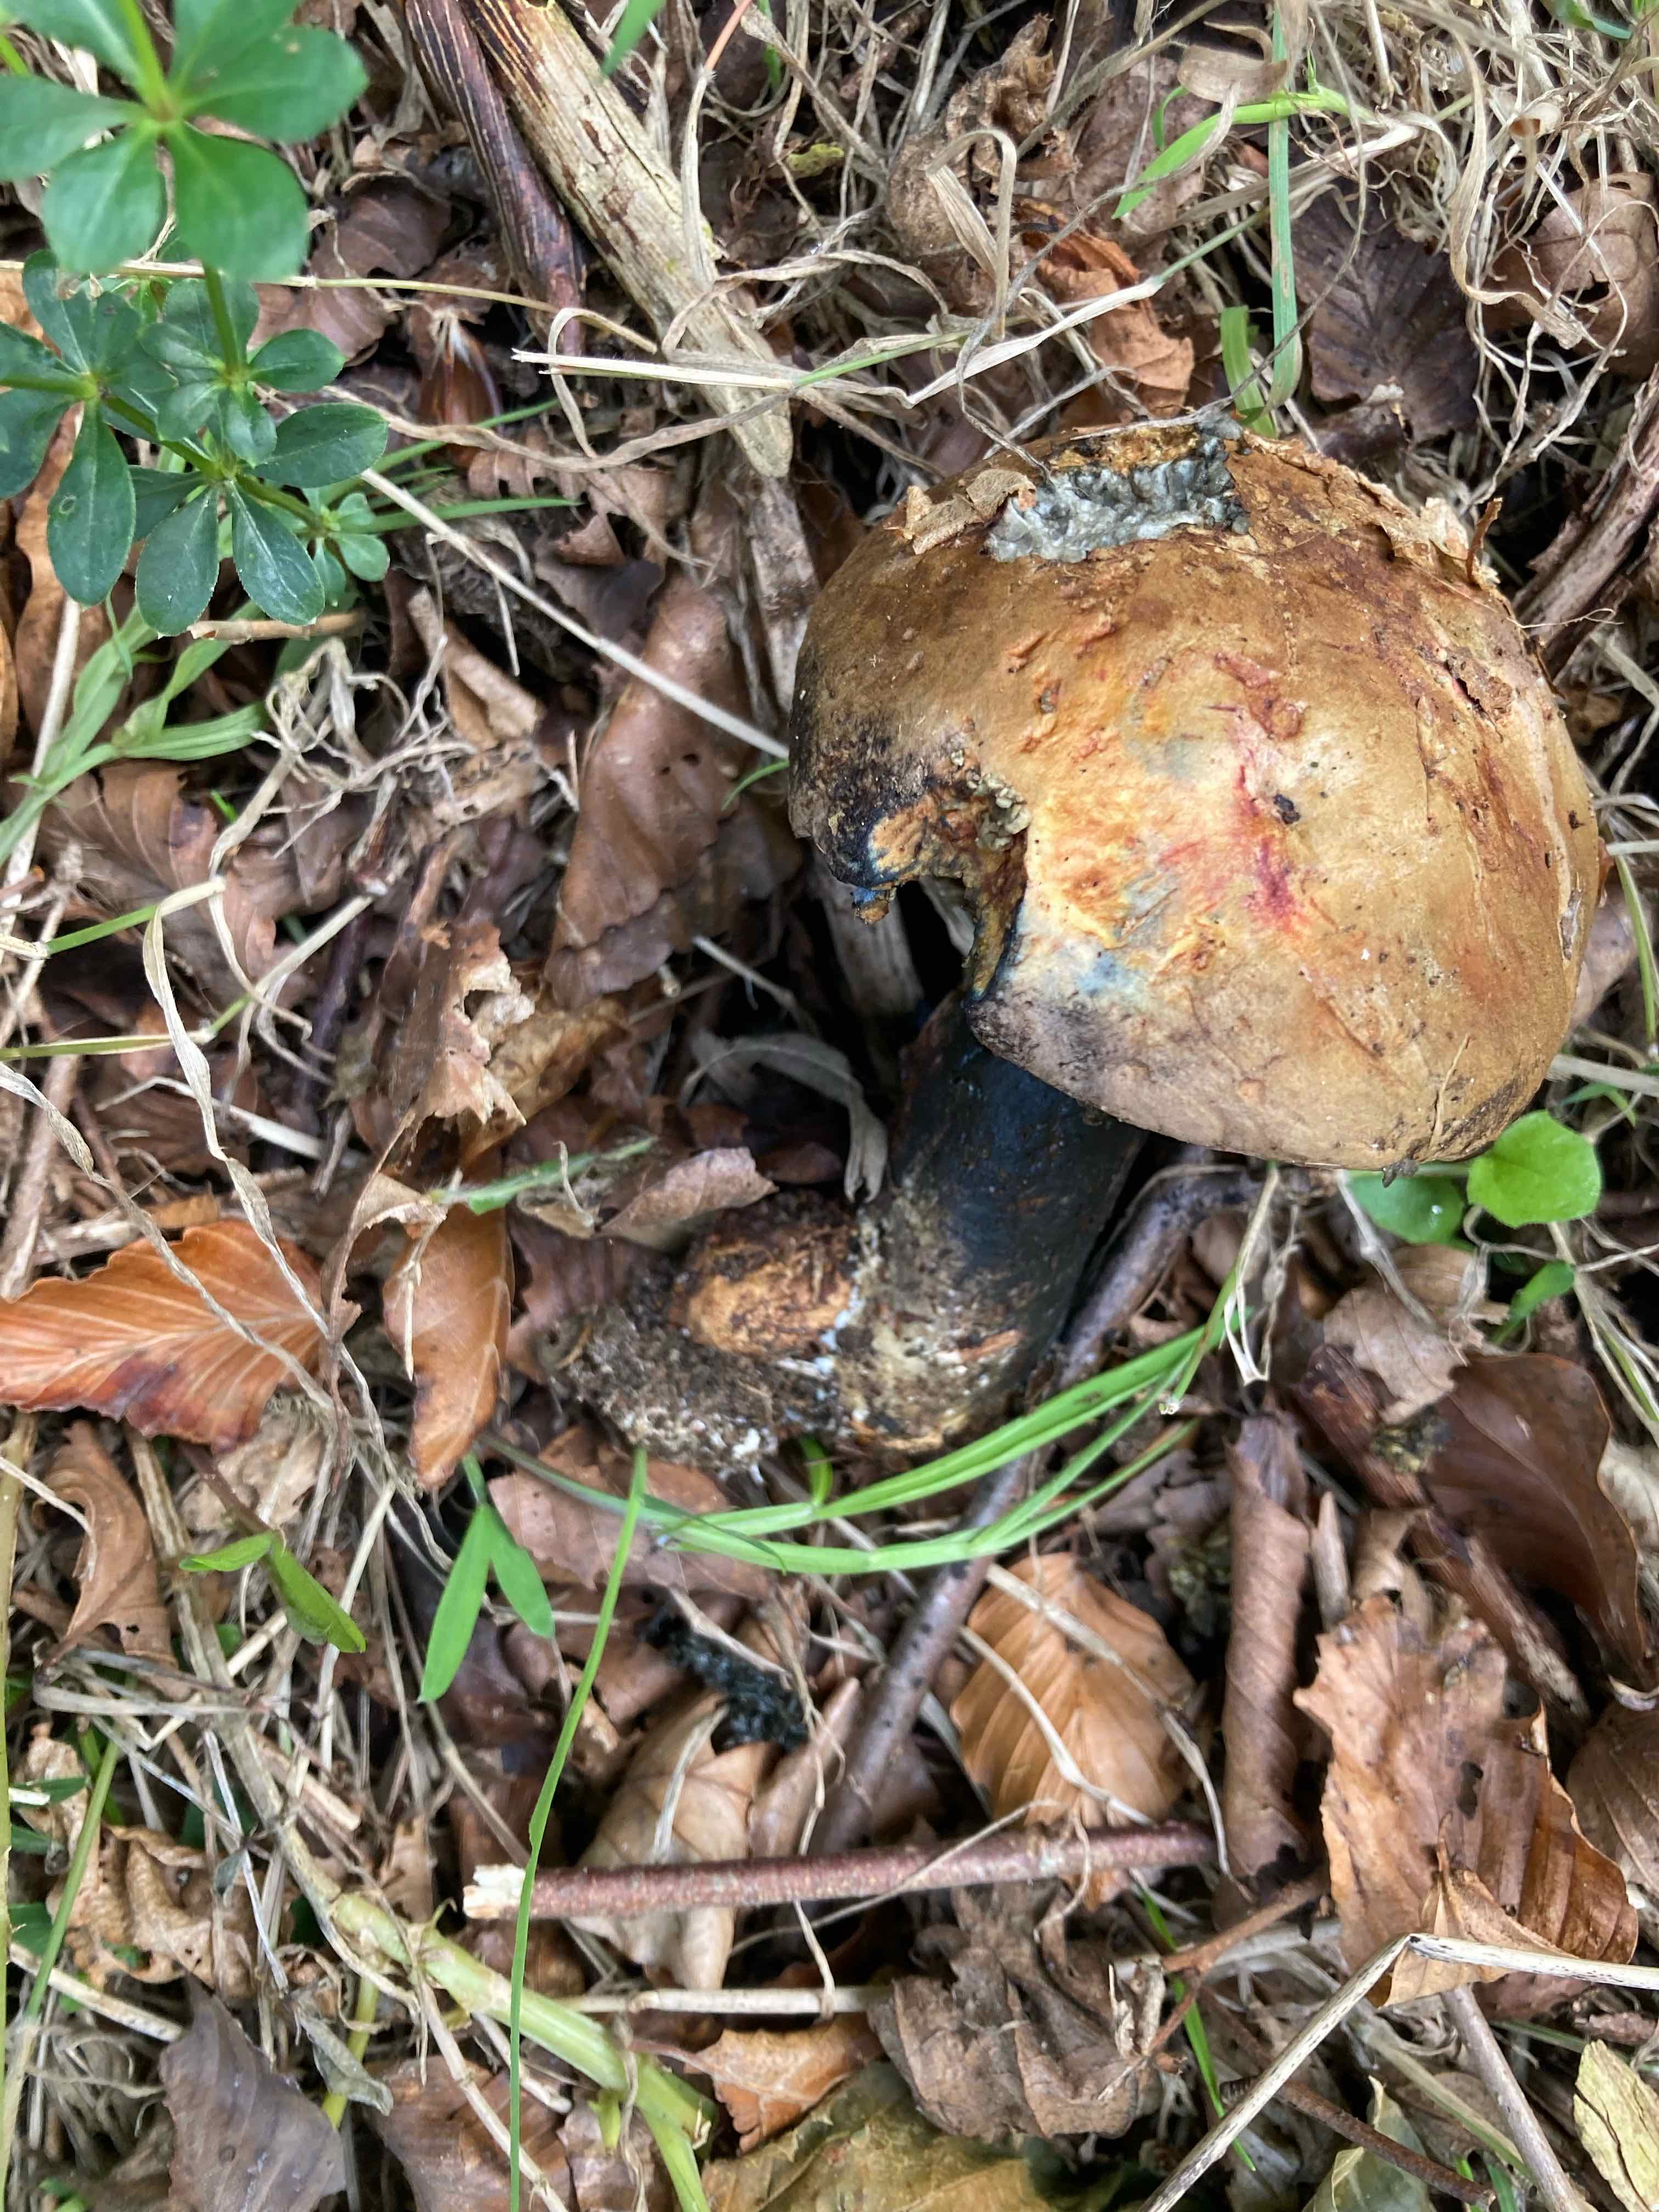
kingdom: Fungi
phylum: Basidiomycota
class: Agaricomycetes
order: Boletales
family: Boletaceae
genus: Cyanoboletus
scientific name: Cyanoboletus pulverulentus
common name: sortblånende rørhat
